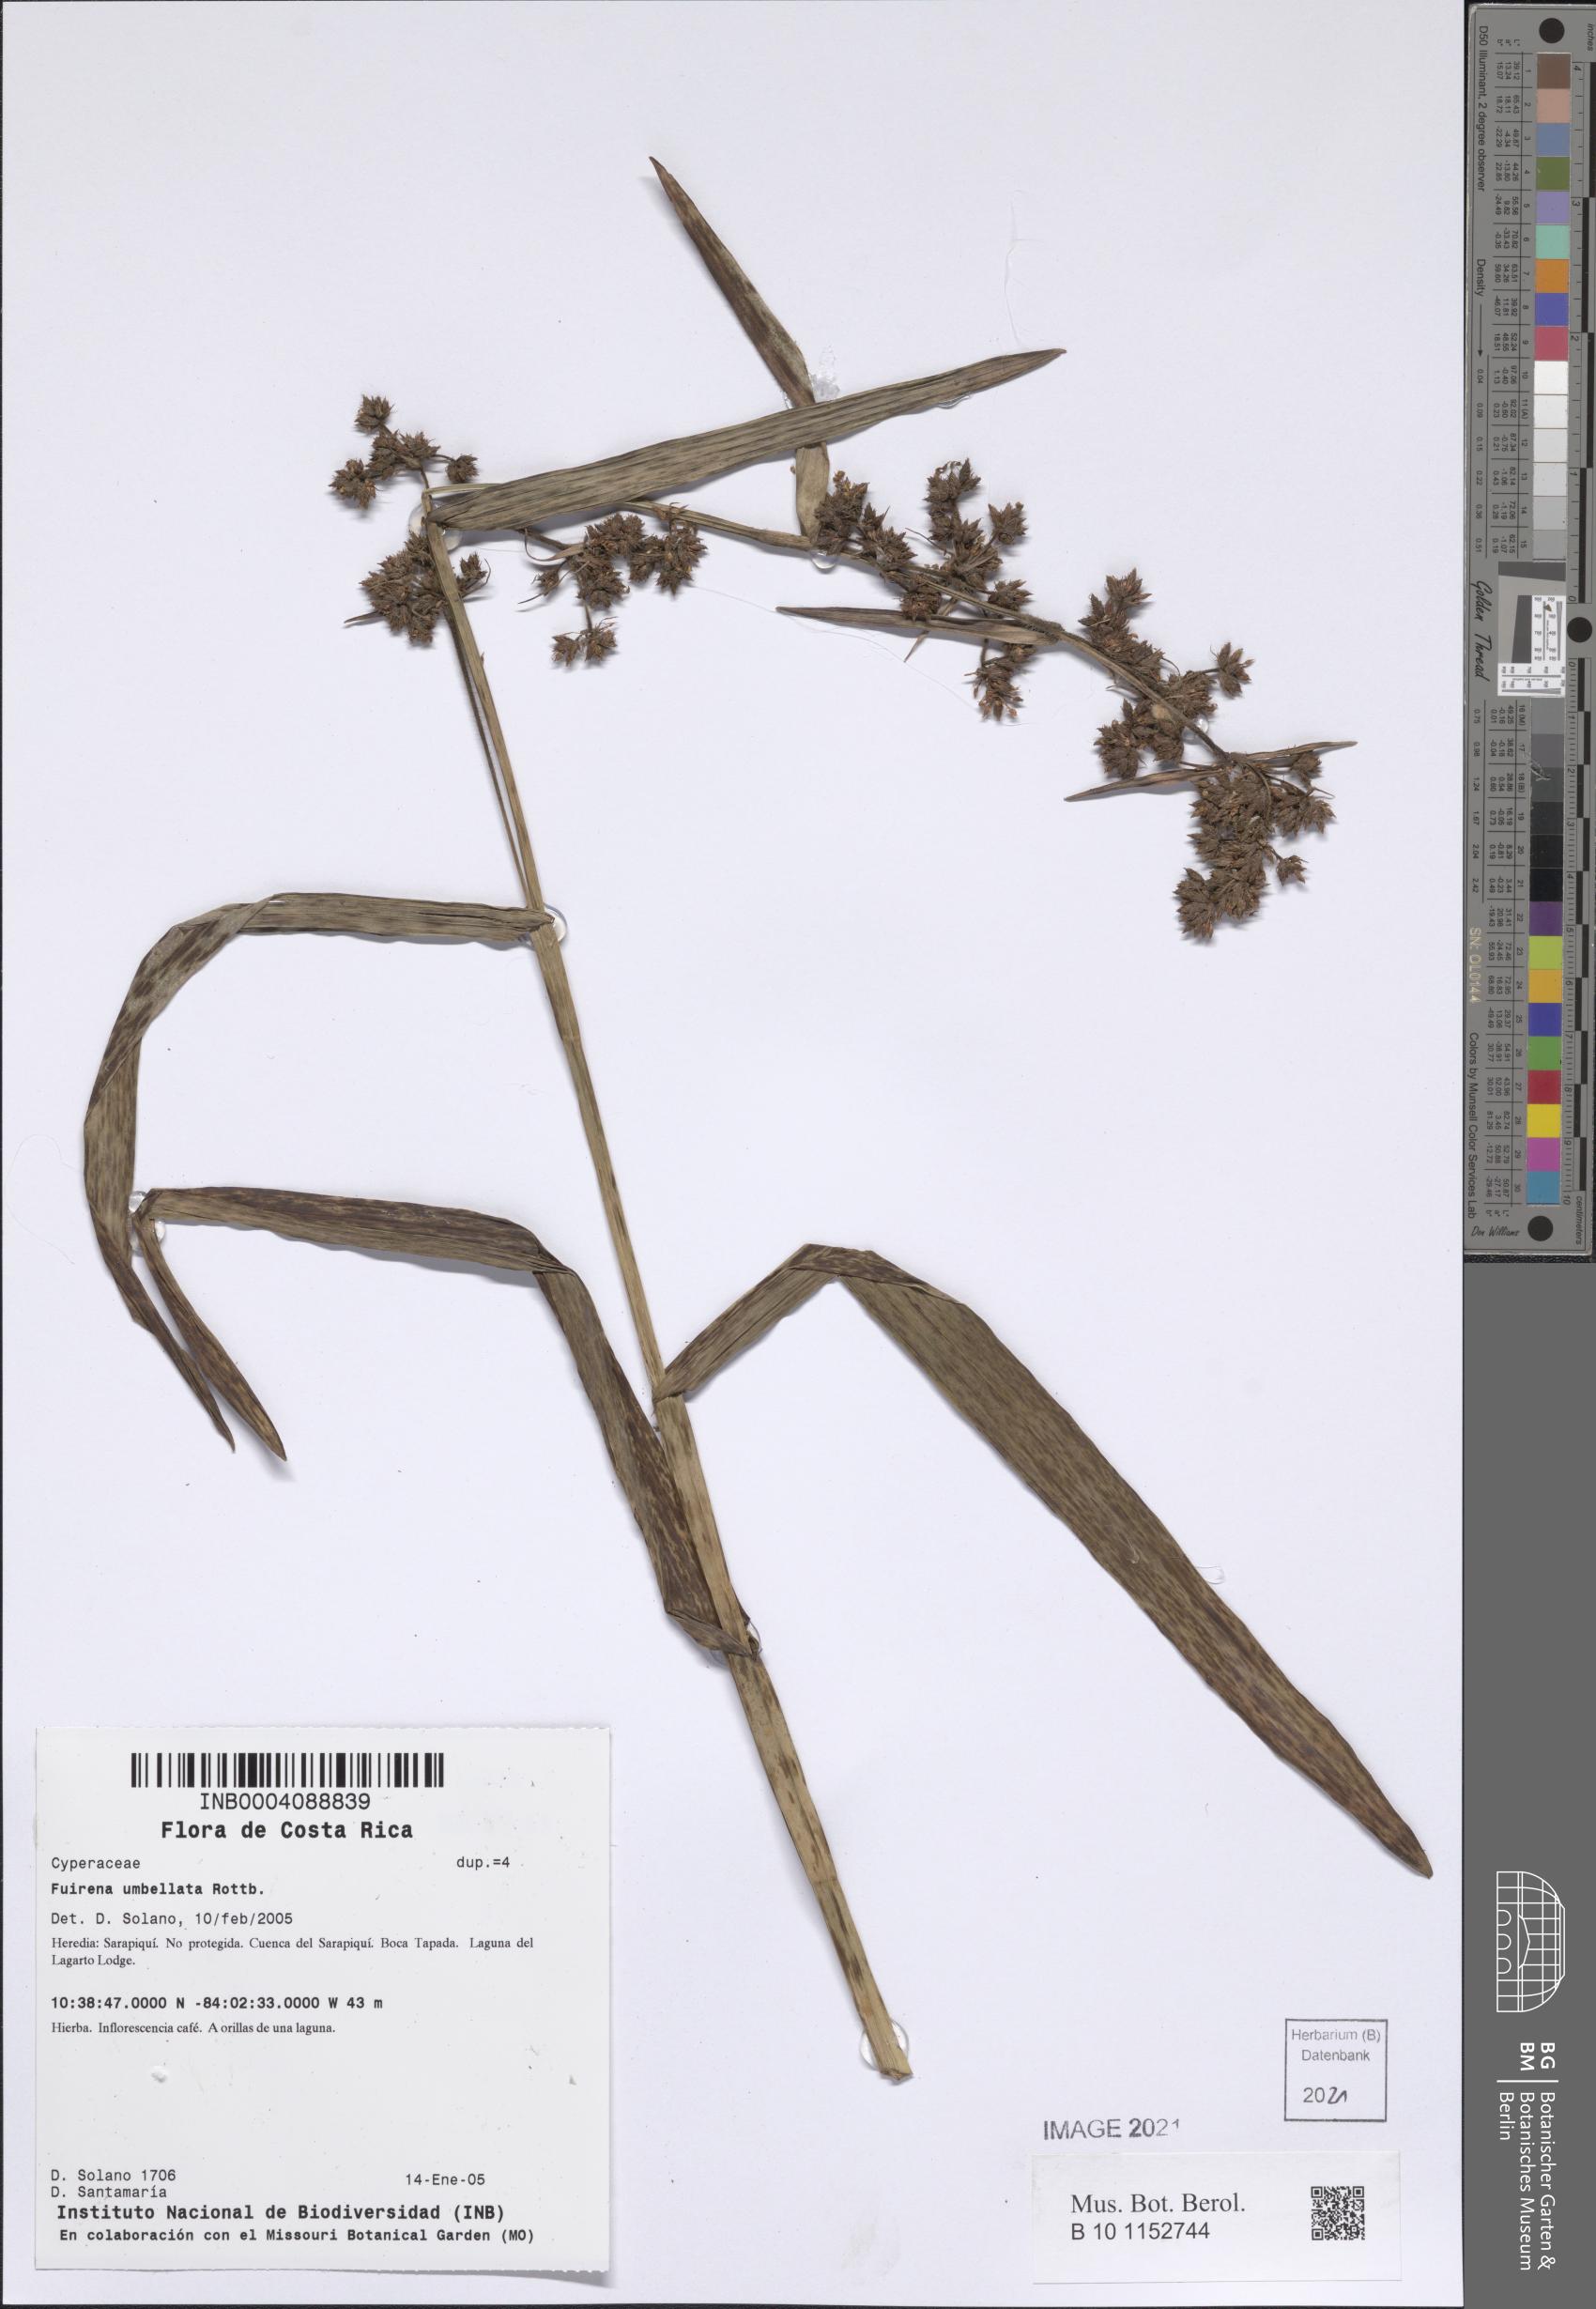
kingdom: Plantae
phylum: Tracheophyta
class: Liliopsida
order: Poales
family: Cyperaceae
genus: Fuirena
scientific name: Fuirena umbellata
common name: Yefen
